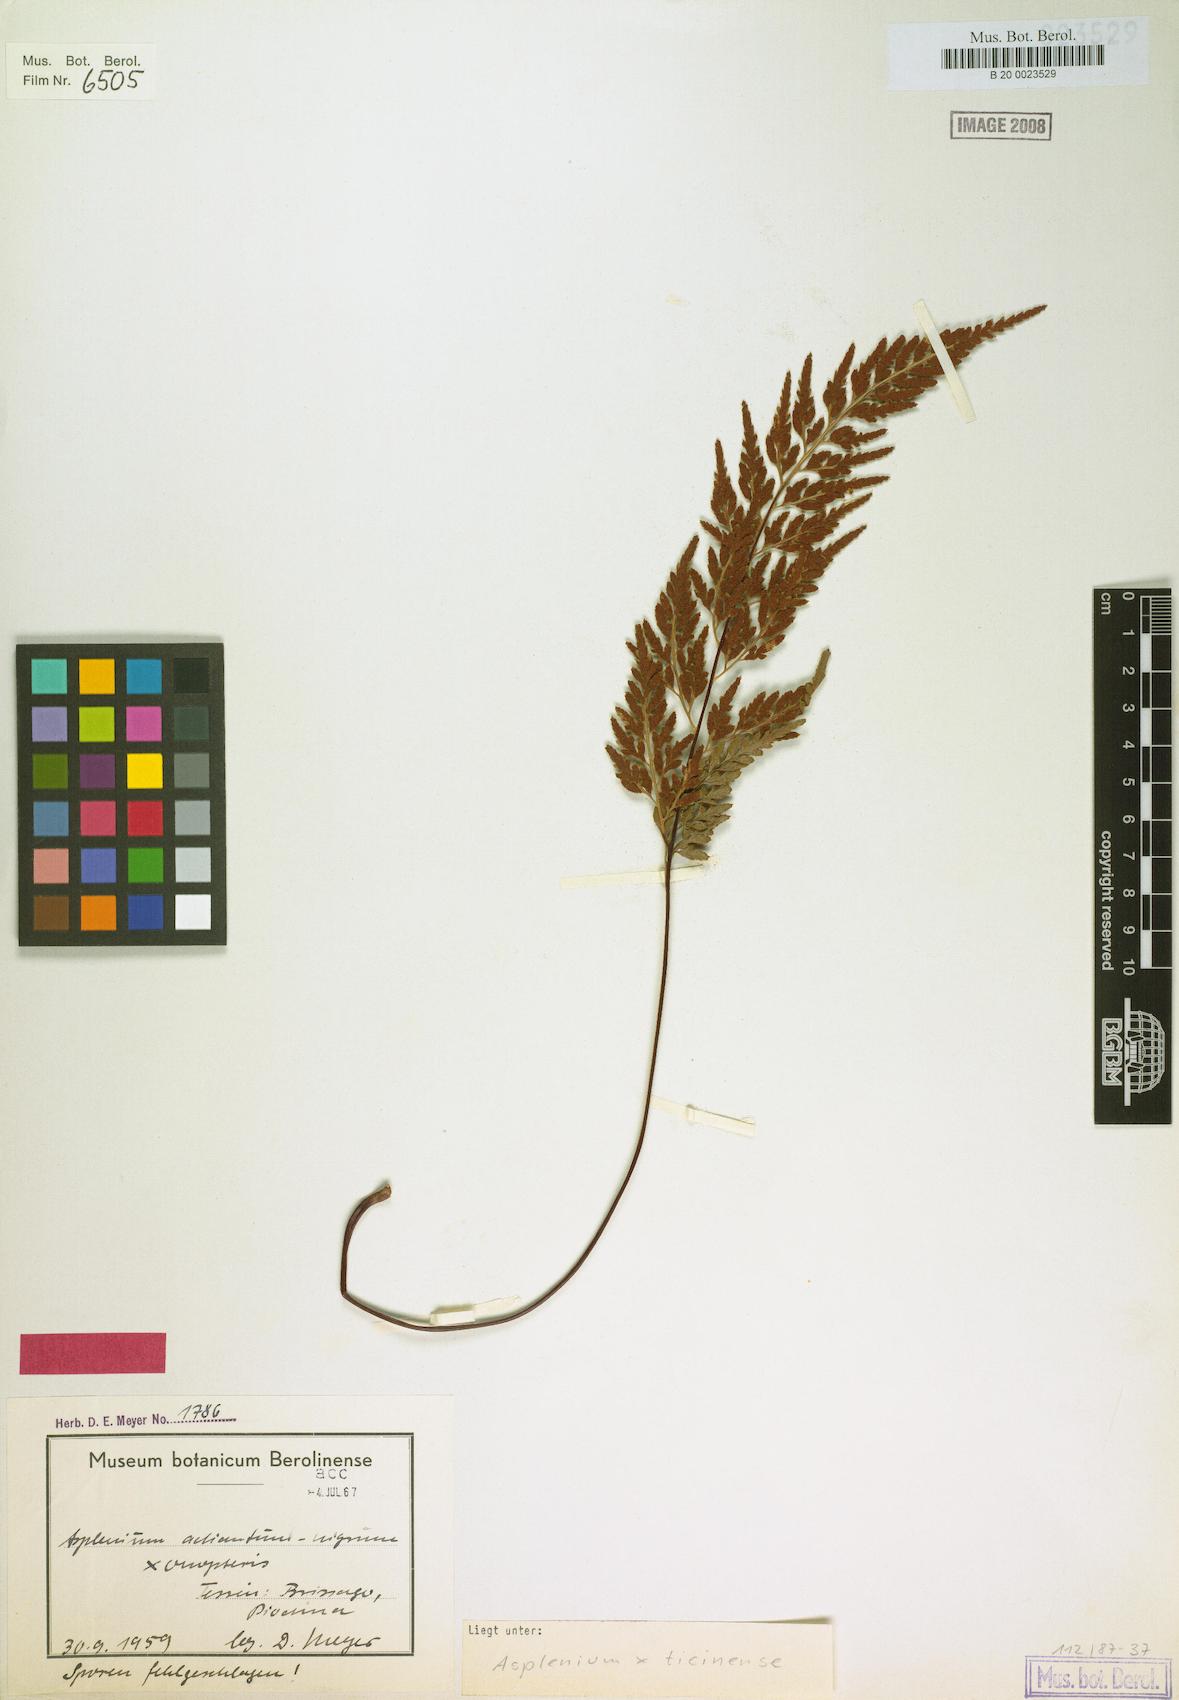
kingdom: Plantae
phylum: Tracheophyta
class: Polypodiopsida
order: Polypodiales
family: Aspleniaceae
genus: Asplenium
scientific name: Asplenium ticinense
